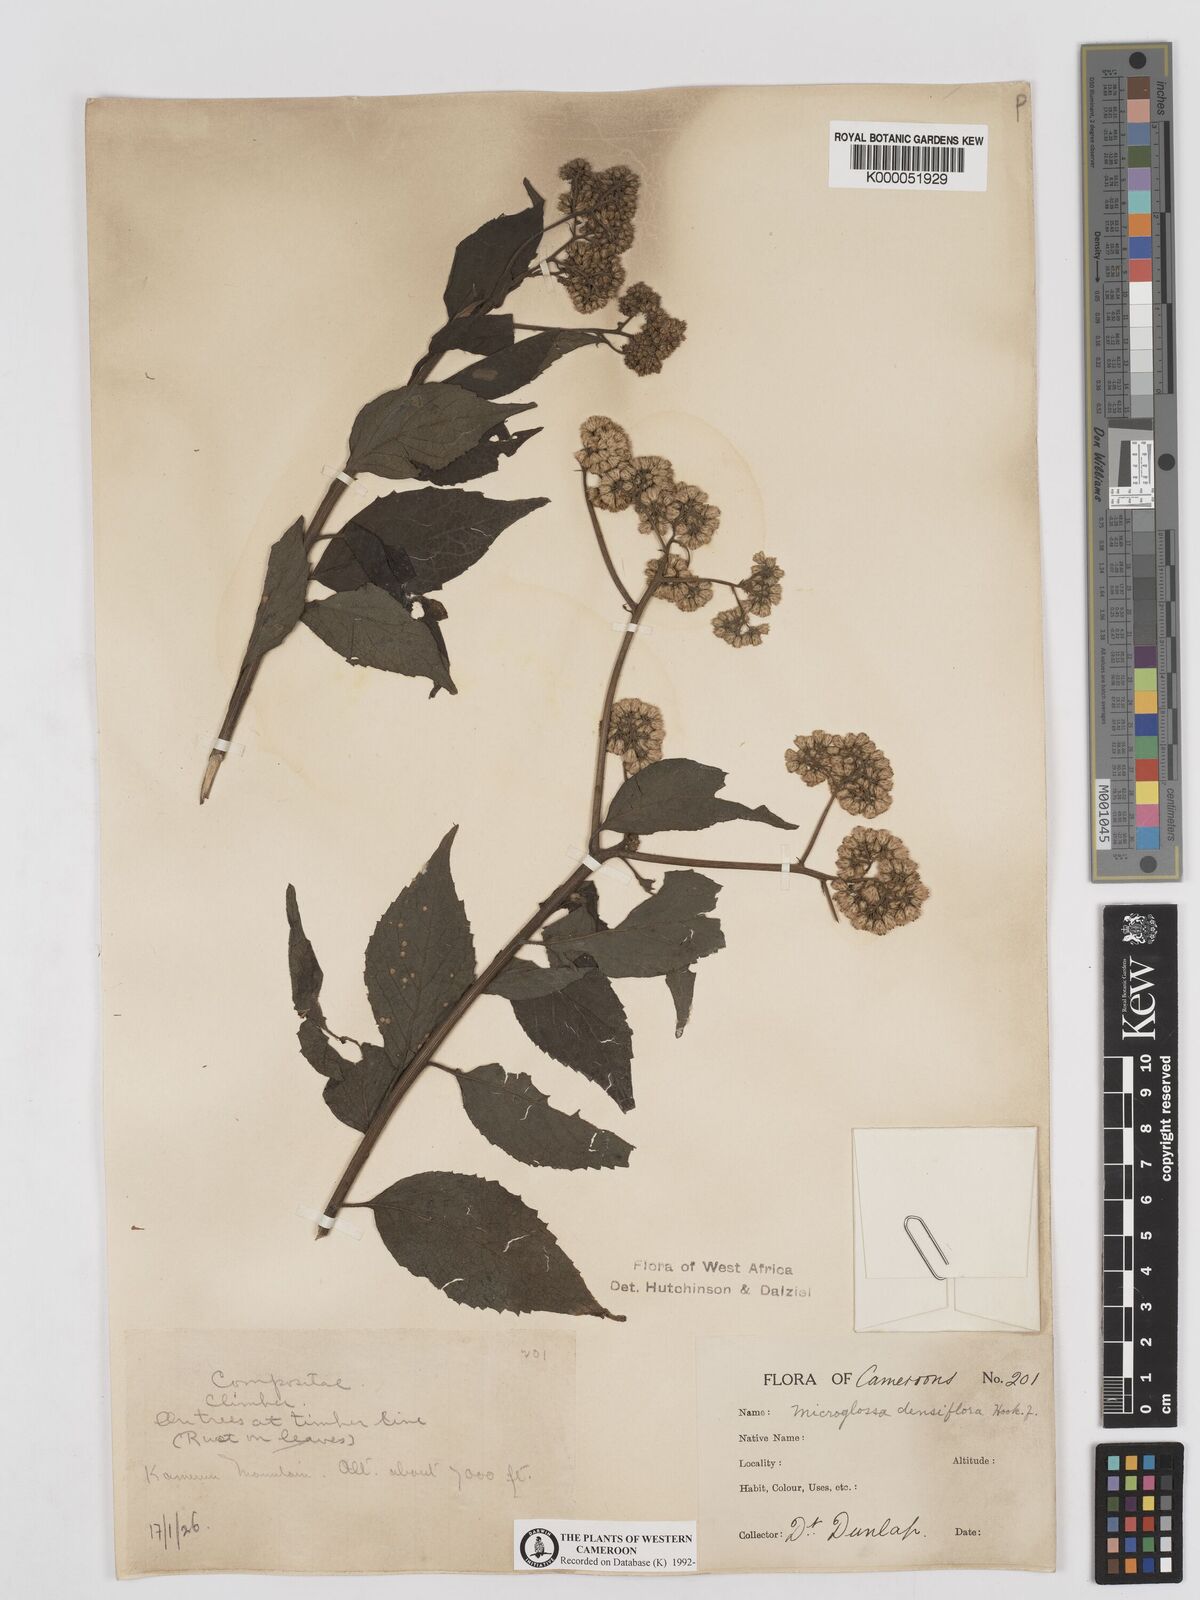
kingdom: Plantae
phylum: Tracheophyta
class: Magnoliopsida
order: Asterales
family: Asteraceae
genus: Microglossa
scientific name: Microglossa densiflora
